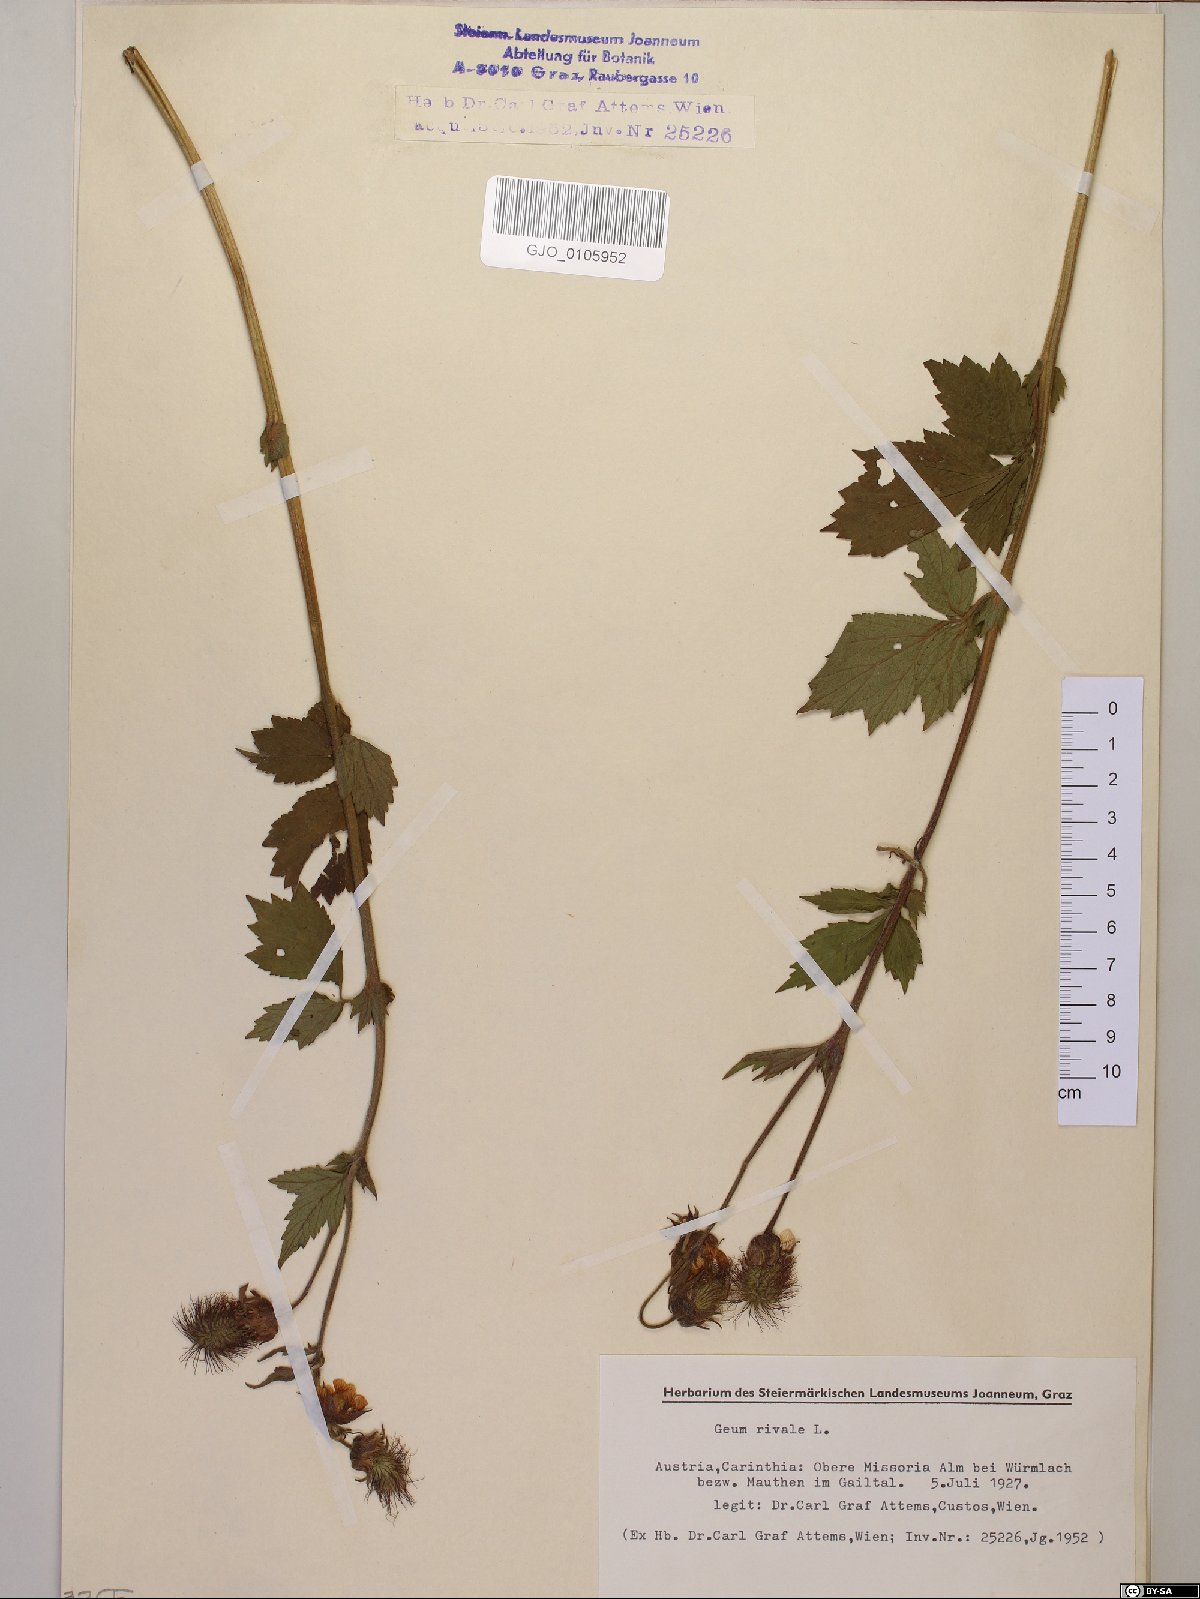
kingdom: Plantae
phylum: Tracheophyta
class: Magnoliopsida
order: Rosales
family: Rosaceae
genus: Geum
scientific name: Geum rivale
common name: Water avens
